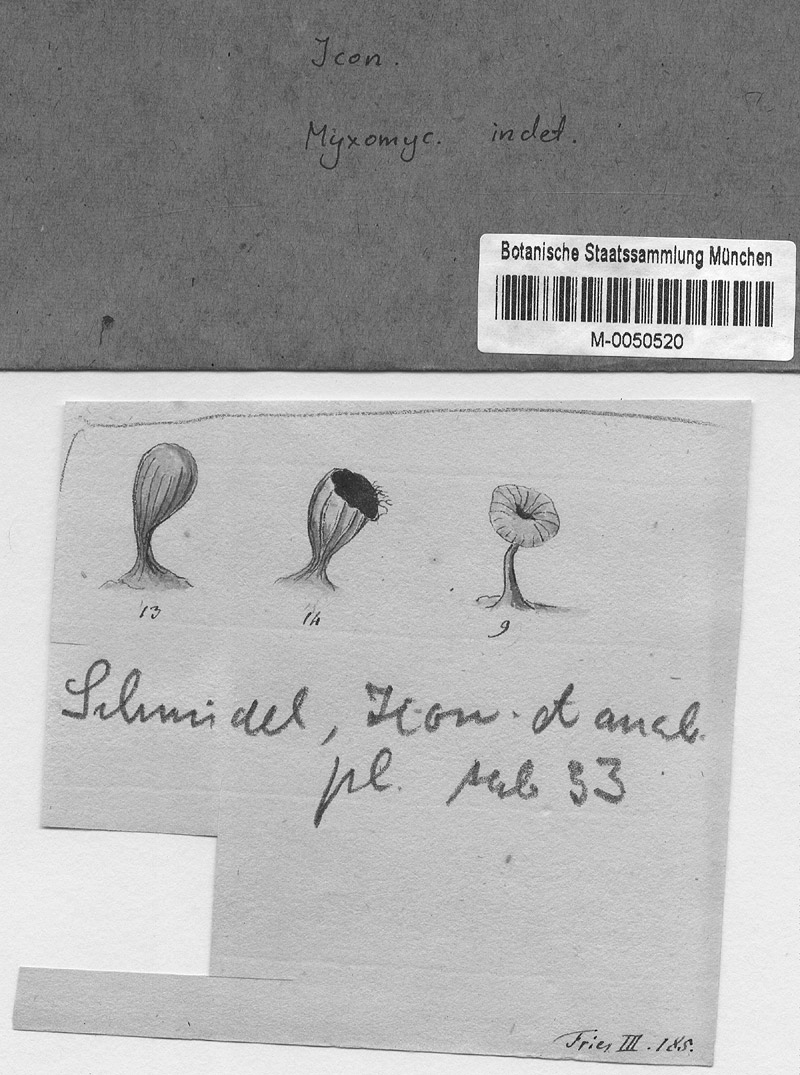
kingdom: Protozoa
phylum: Mycetozoa
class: Myxomycetes
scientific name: Myxomycetes
